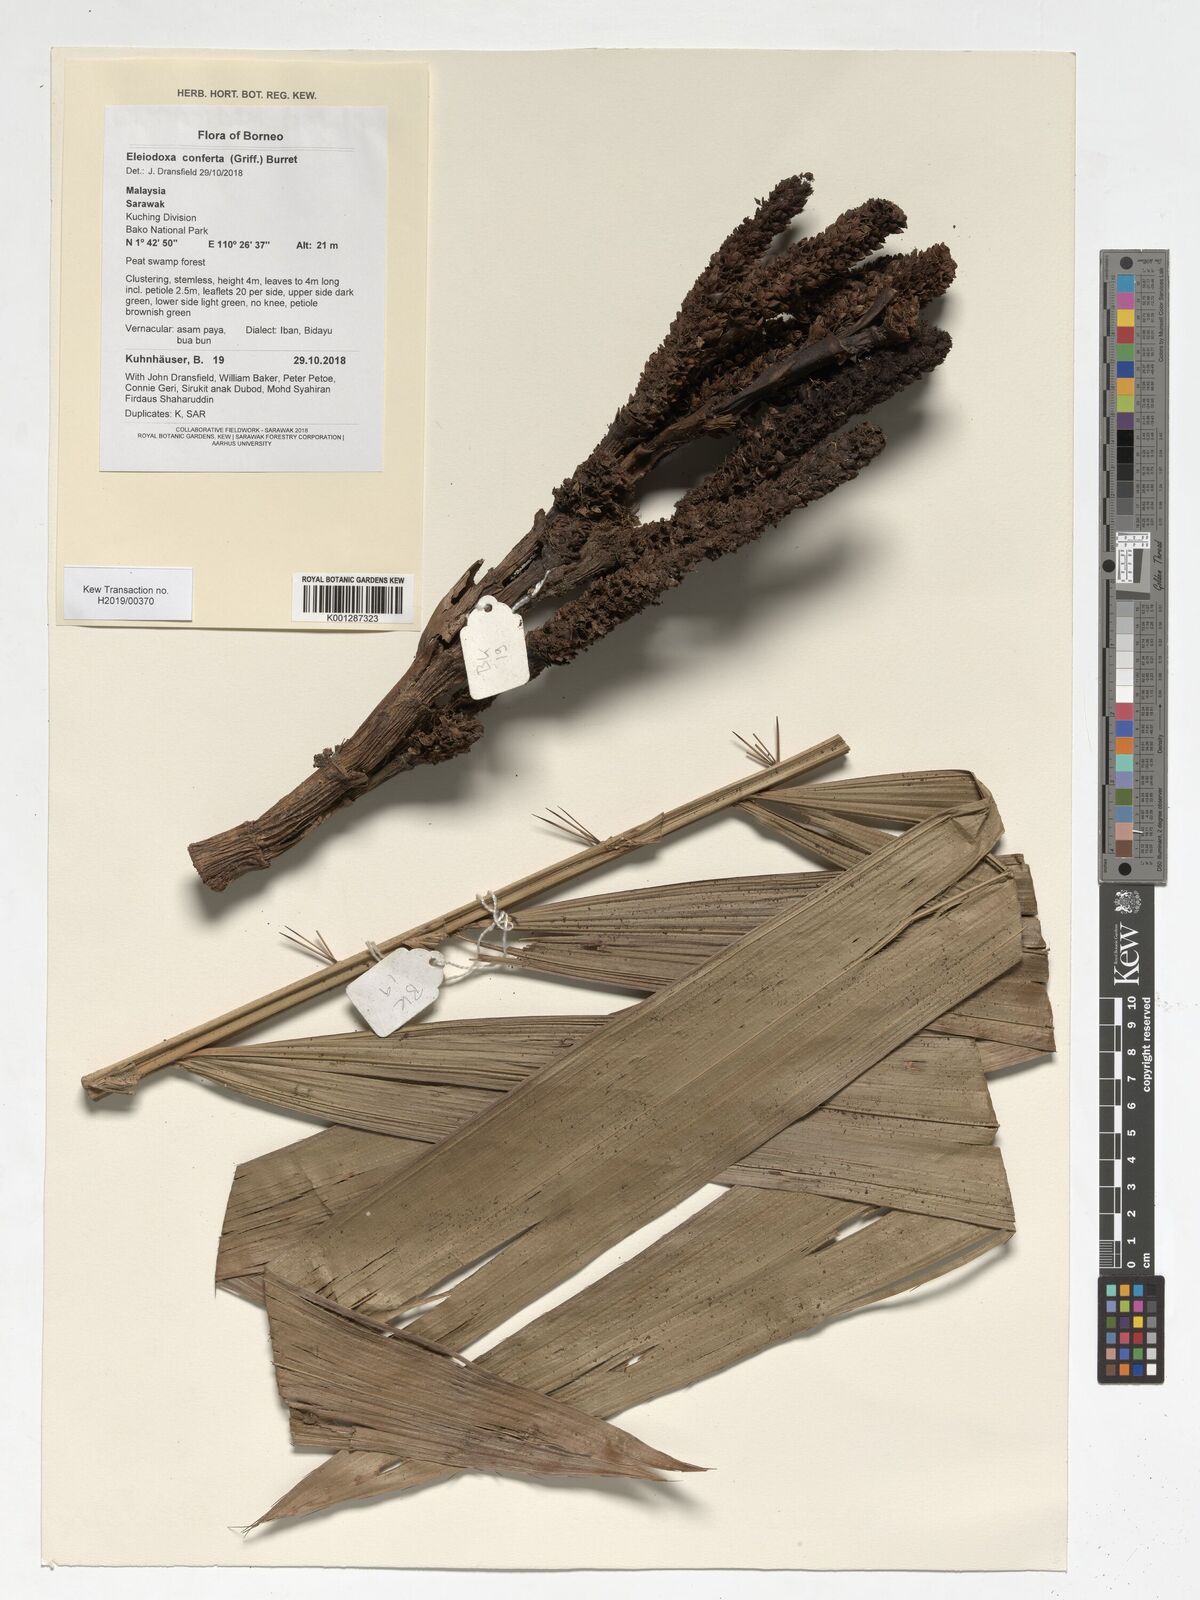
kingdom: Plantae
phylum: Tracheophyta
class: Liliopsida
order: Arecales
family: Arecaceae
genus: Eleiodoxa
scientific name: Eleiodoxa conferta
